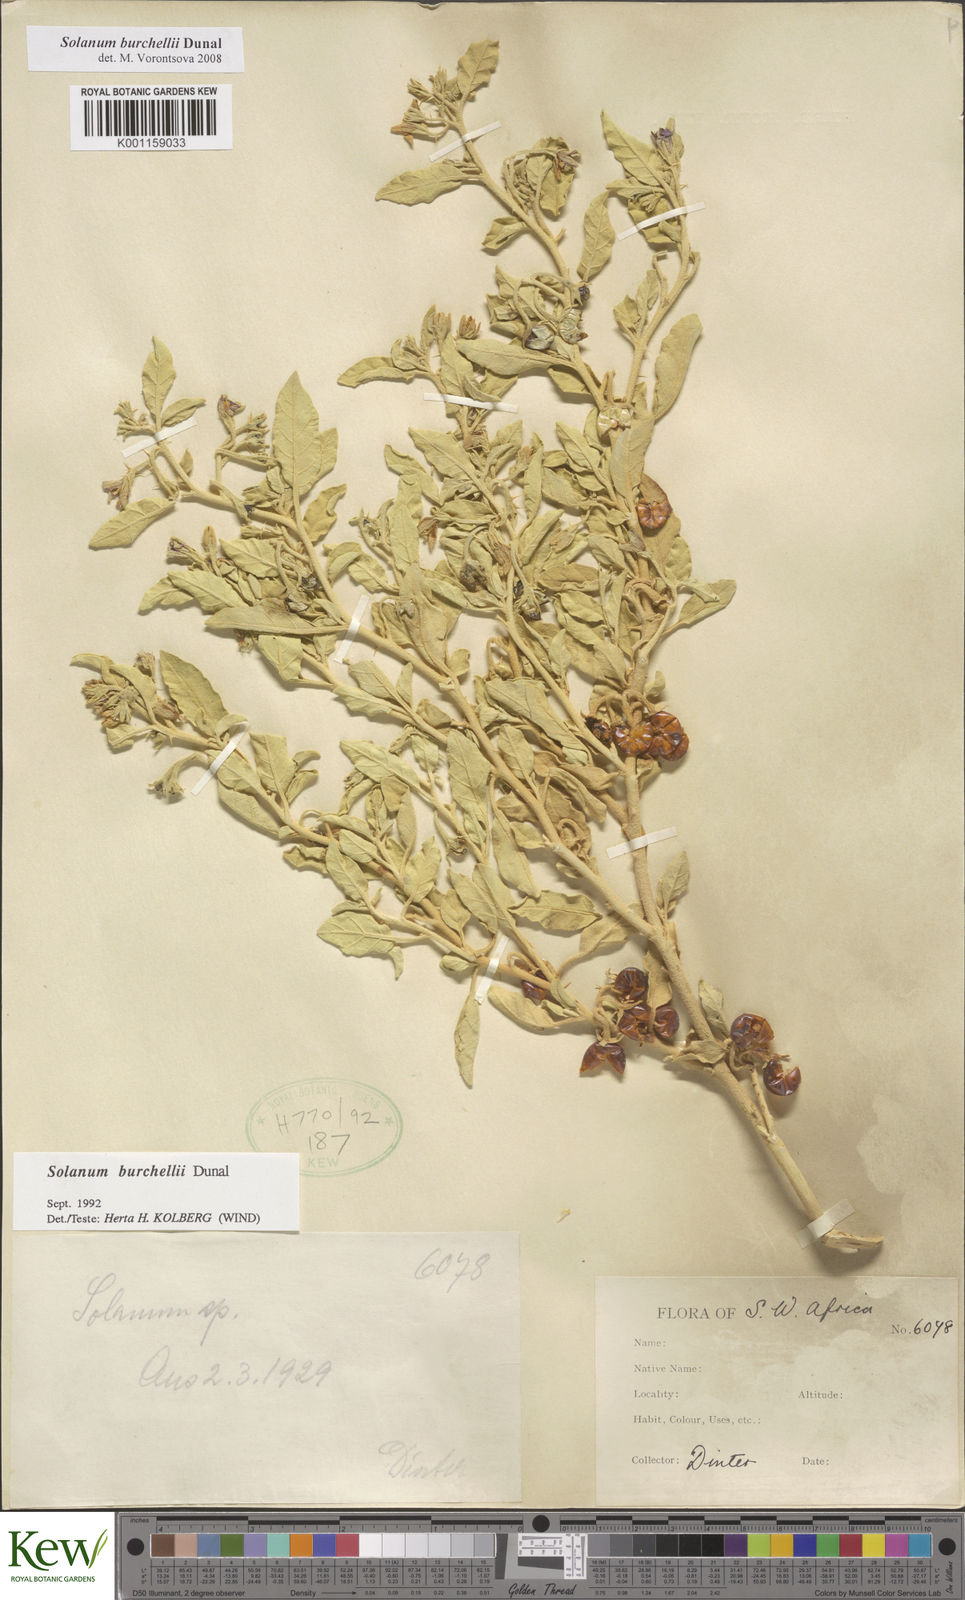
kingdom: Plantae
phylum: Tracheophyta
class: Magnoliopsida
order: Solanales
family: Solanaceae
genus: Solanum
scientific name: Solanum burchellii
